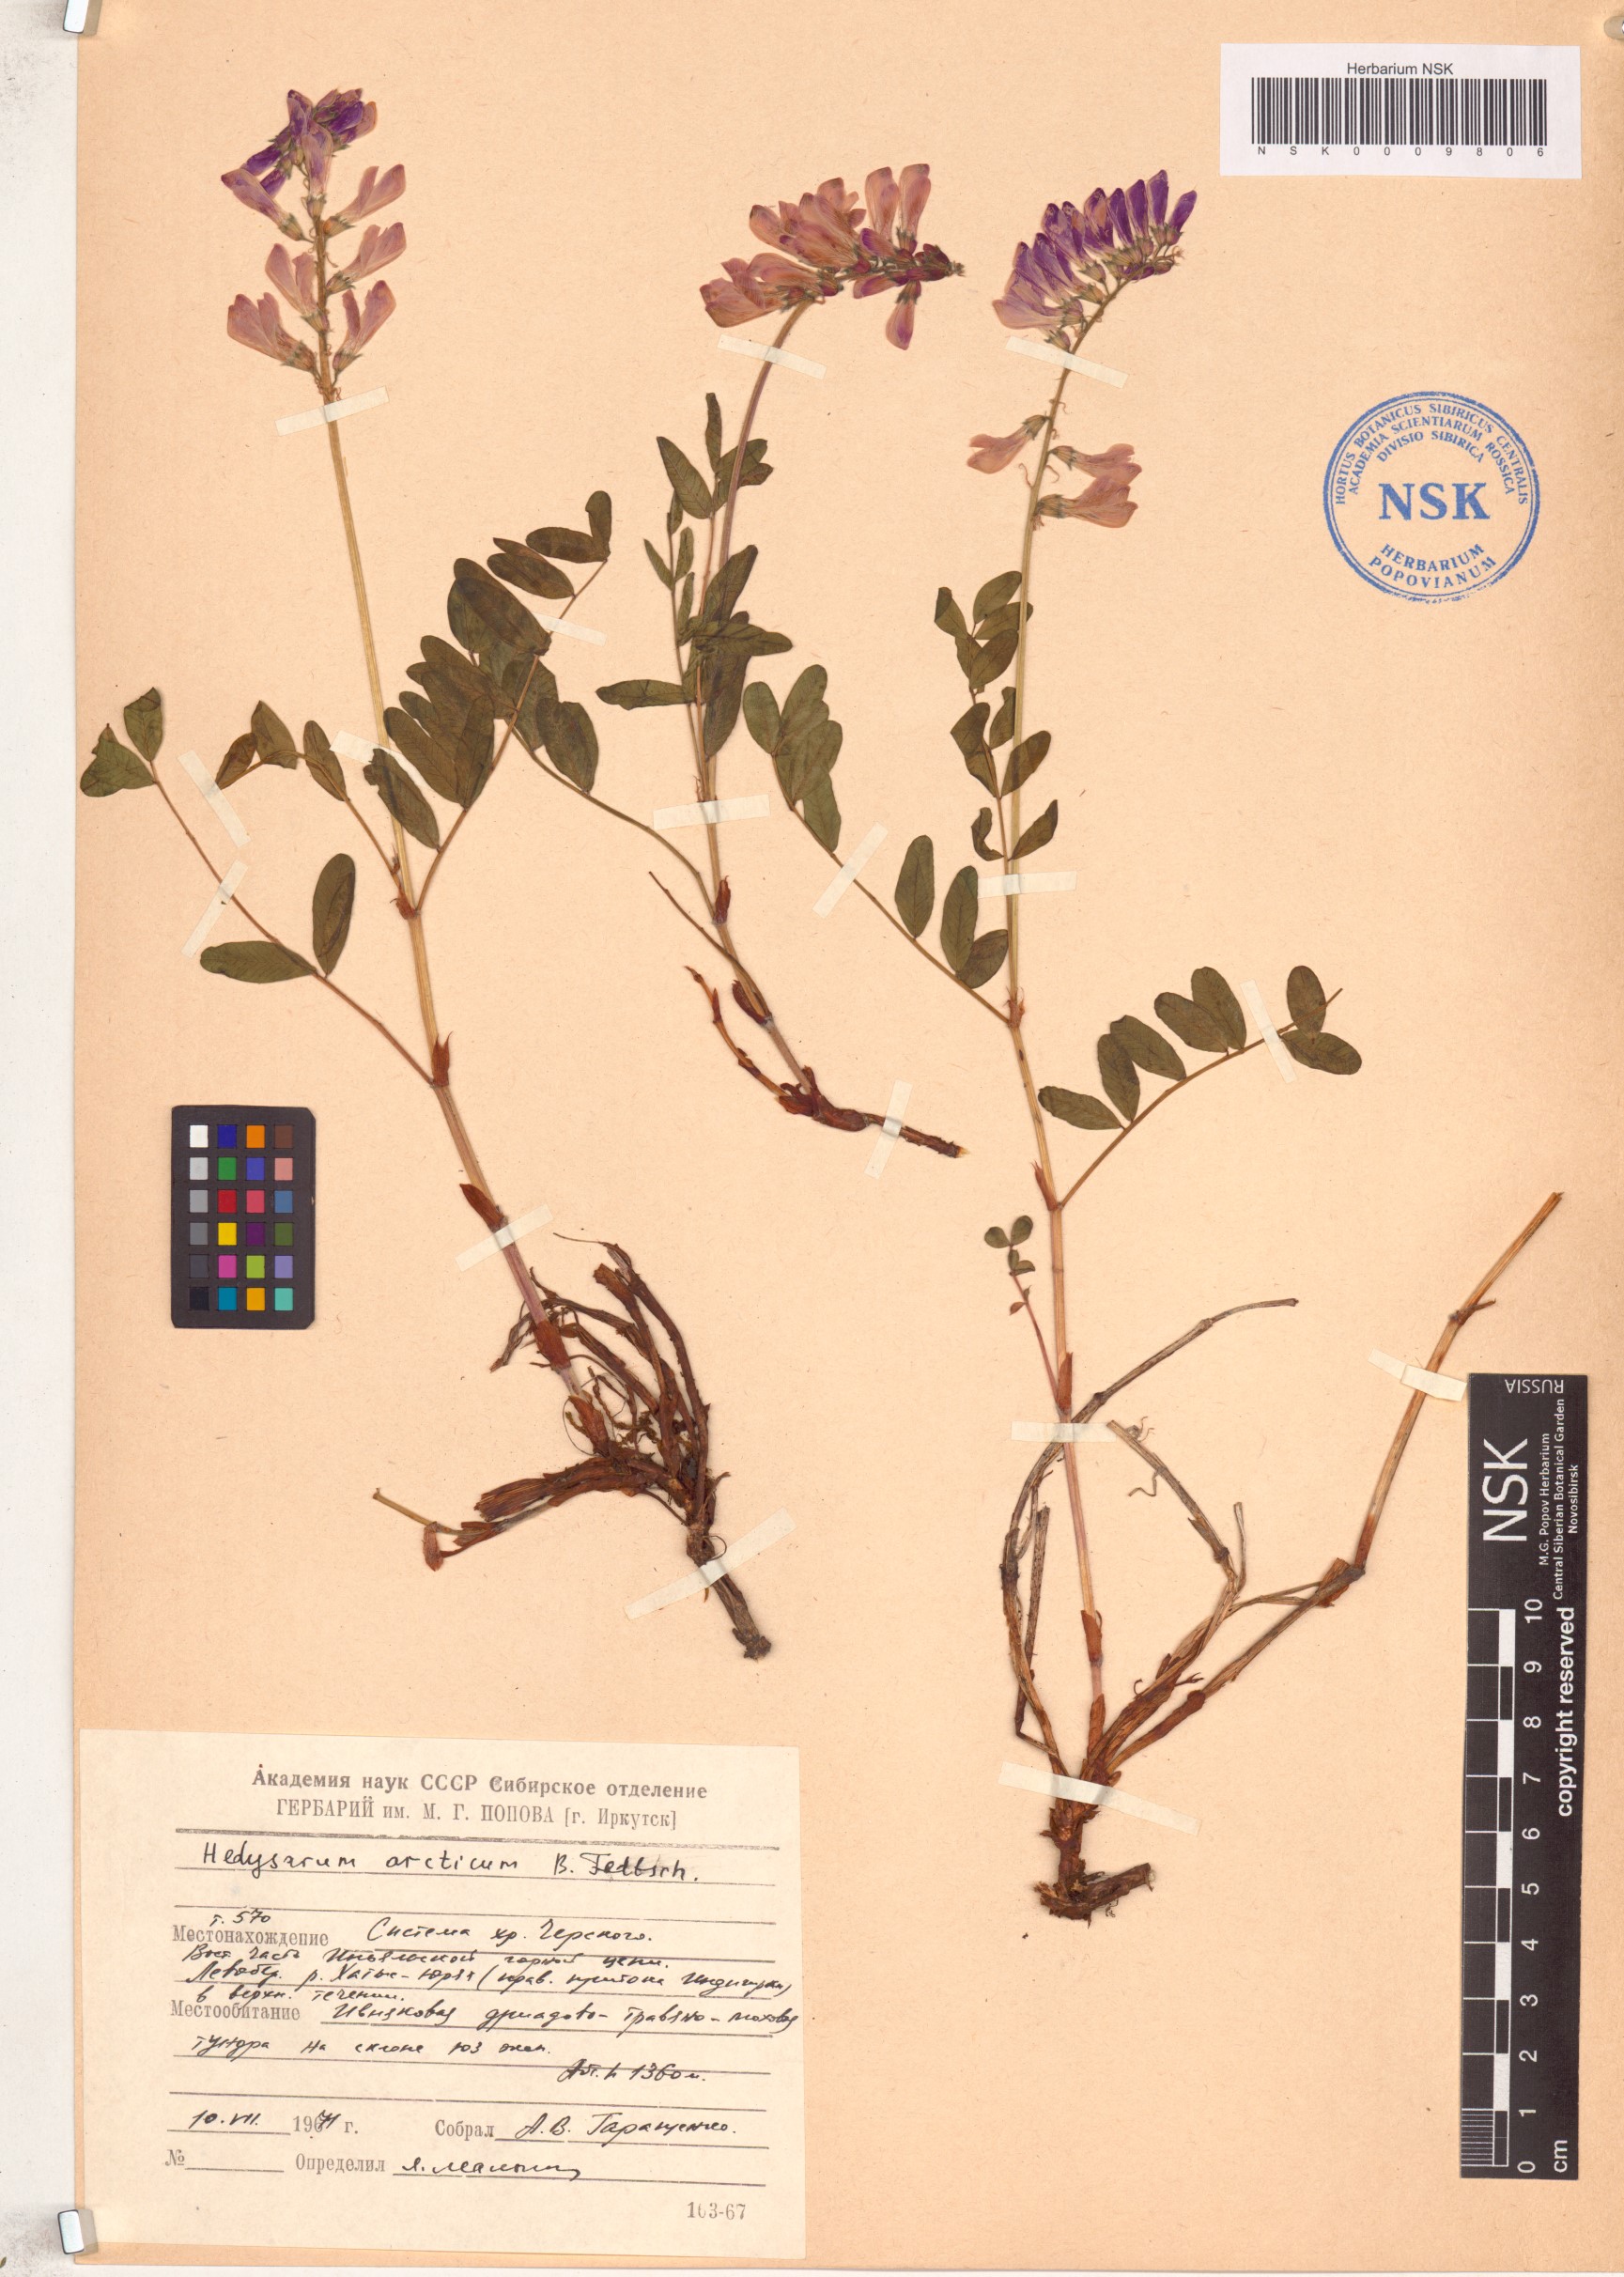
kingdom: Plantae
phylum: Tracheophyta
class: Magnoliopsida
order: Fabales
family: Fabaceae
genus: Hedysarum
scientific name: Hedysarum hedysaroides
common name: Alpine french-honeysuckle
